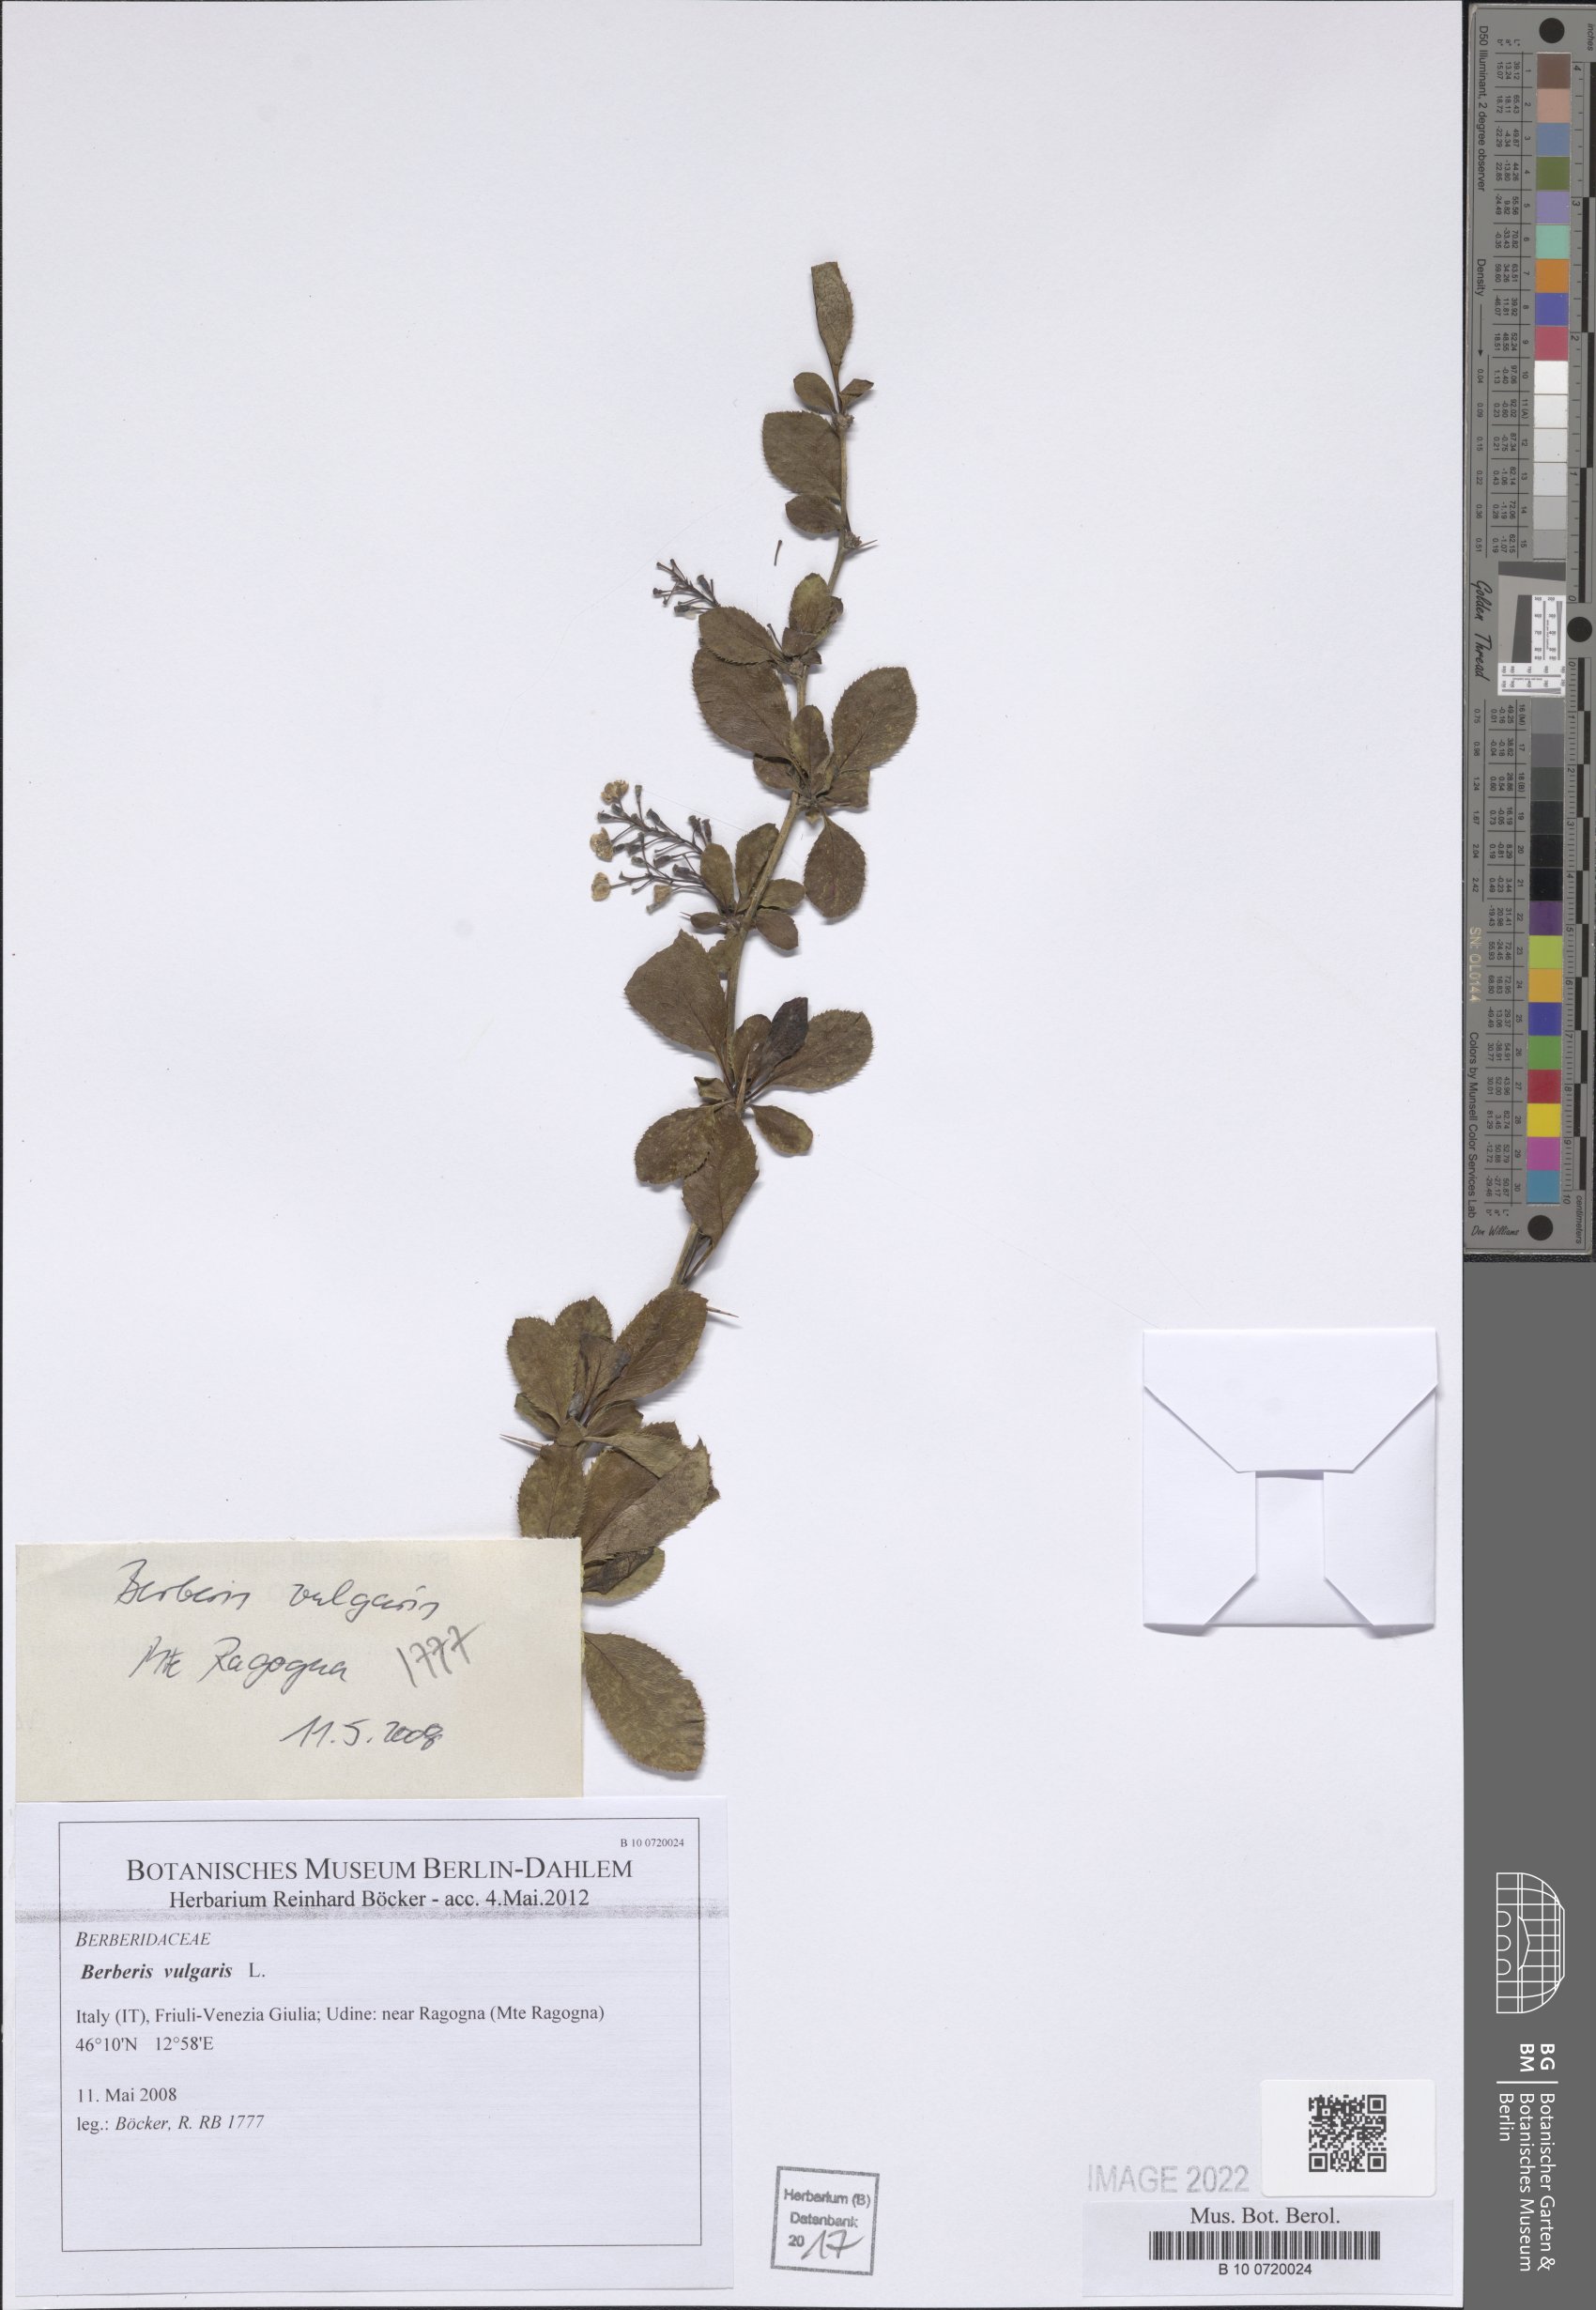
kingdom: Plantae
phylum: Tracheophyta
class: Magnoliopsida
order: Ranunculales
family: Berberidaceae
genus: Berberis
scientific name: Berberis vulgaris
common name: Barberry
